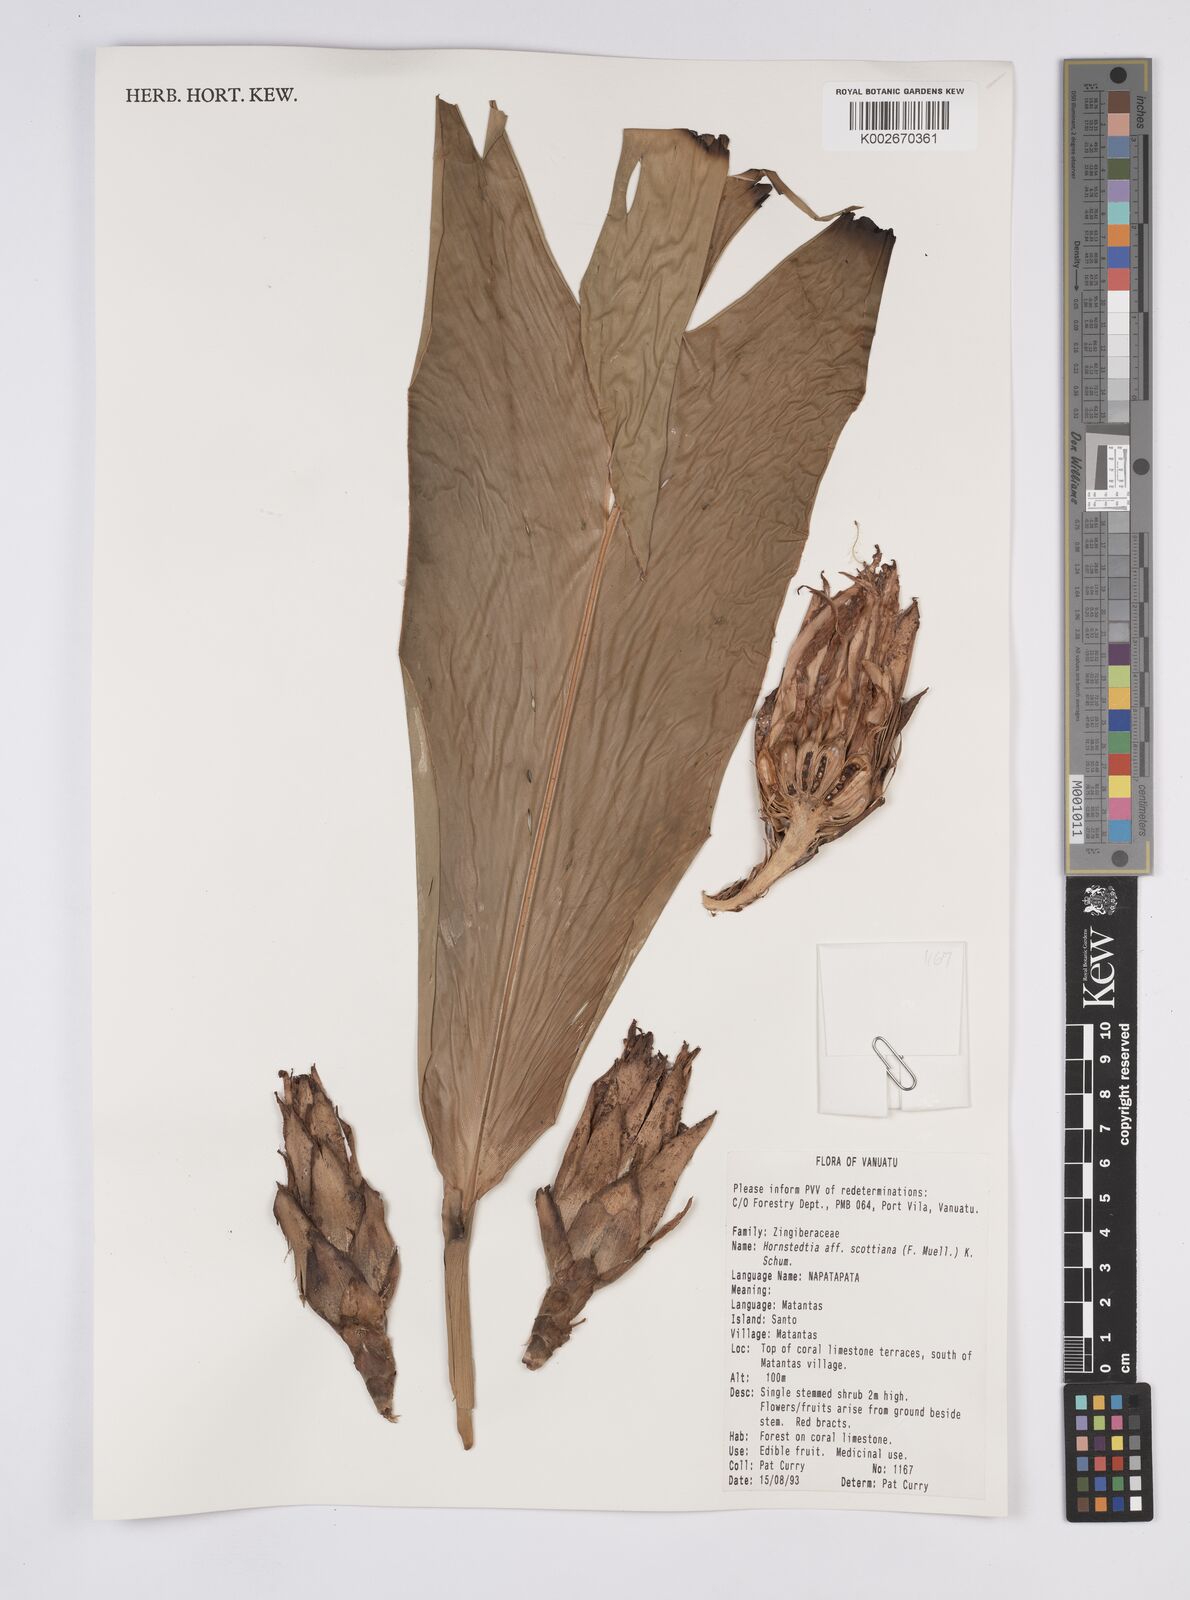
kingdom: Plantae
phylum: Tracheophyta
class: Liliopsida
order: Zingiberales
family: Zingiberaceae
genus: Hornstedtia
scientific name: Hornstedtia scottiana
